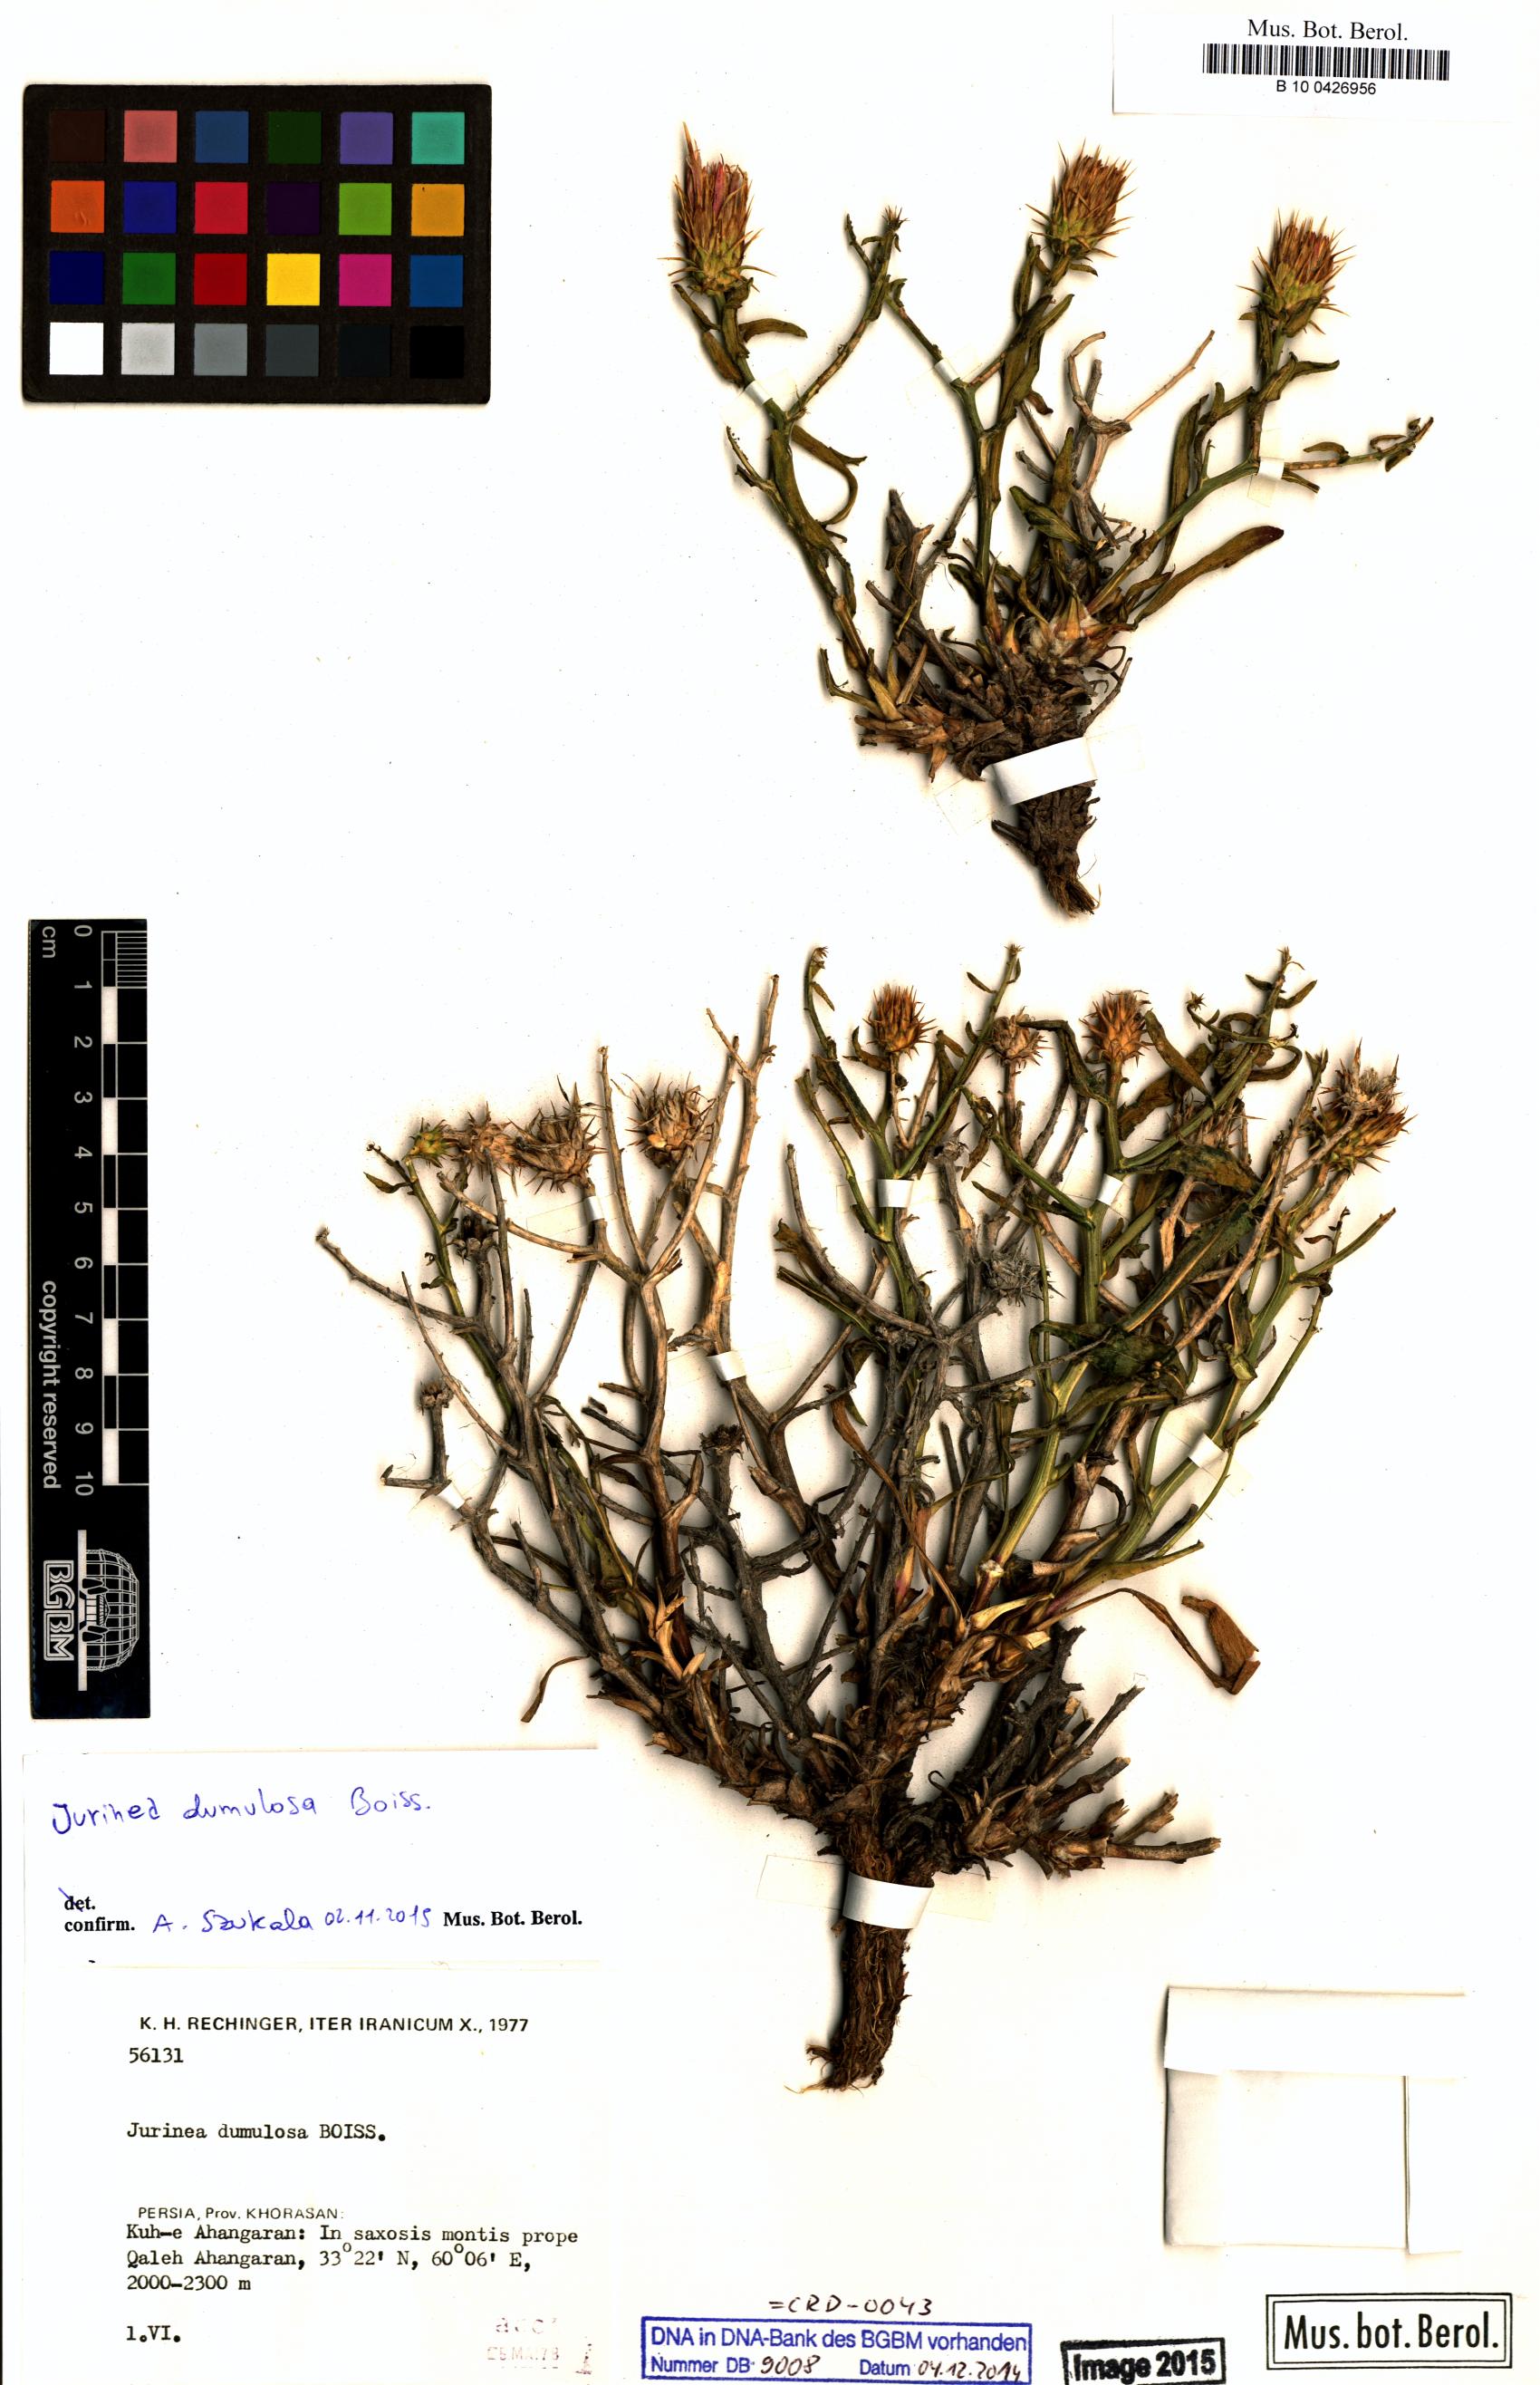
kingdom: Plantae
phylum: Tracheophyta
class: Magnoliopsida
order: Asterales
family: Asteraceae
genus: Jurinea
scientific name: Jurinea dumulosa
